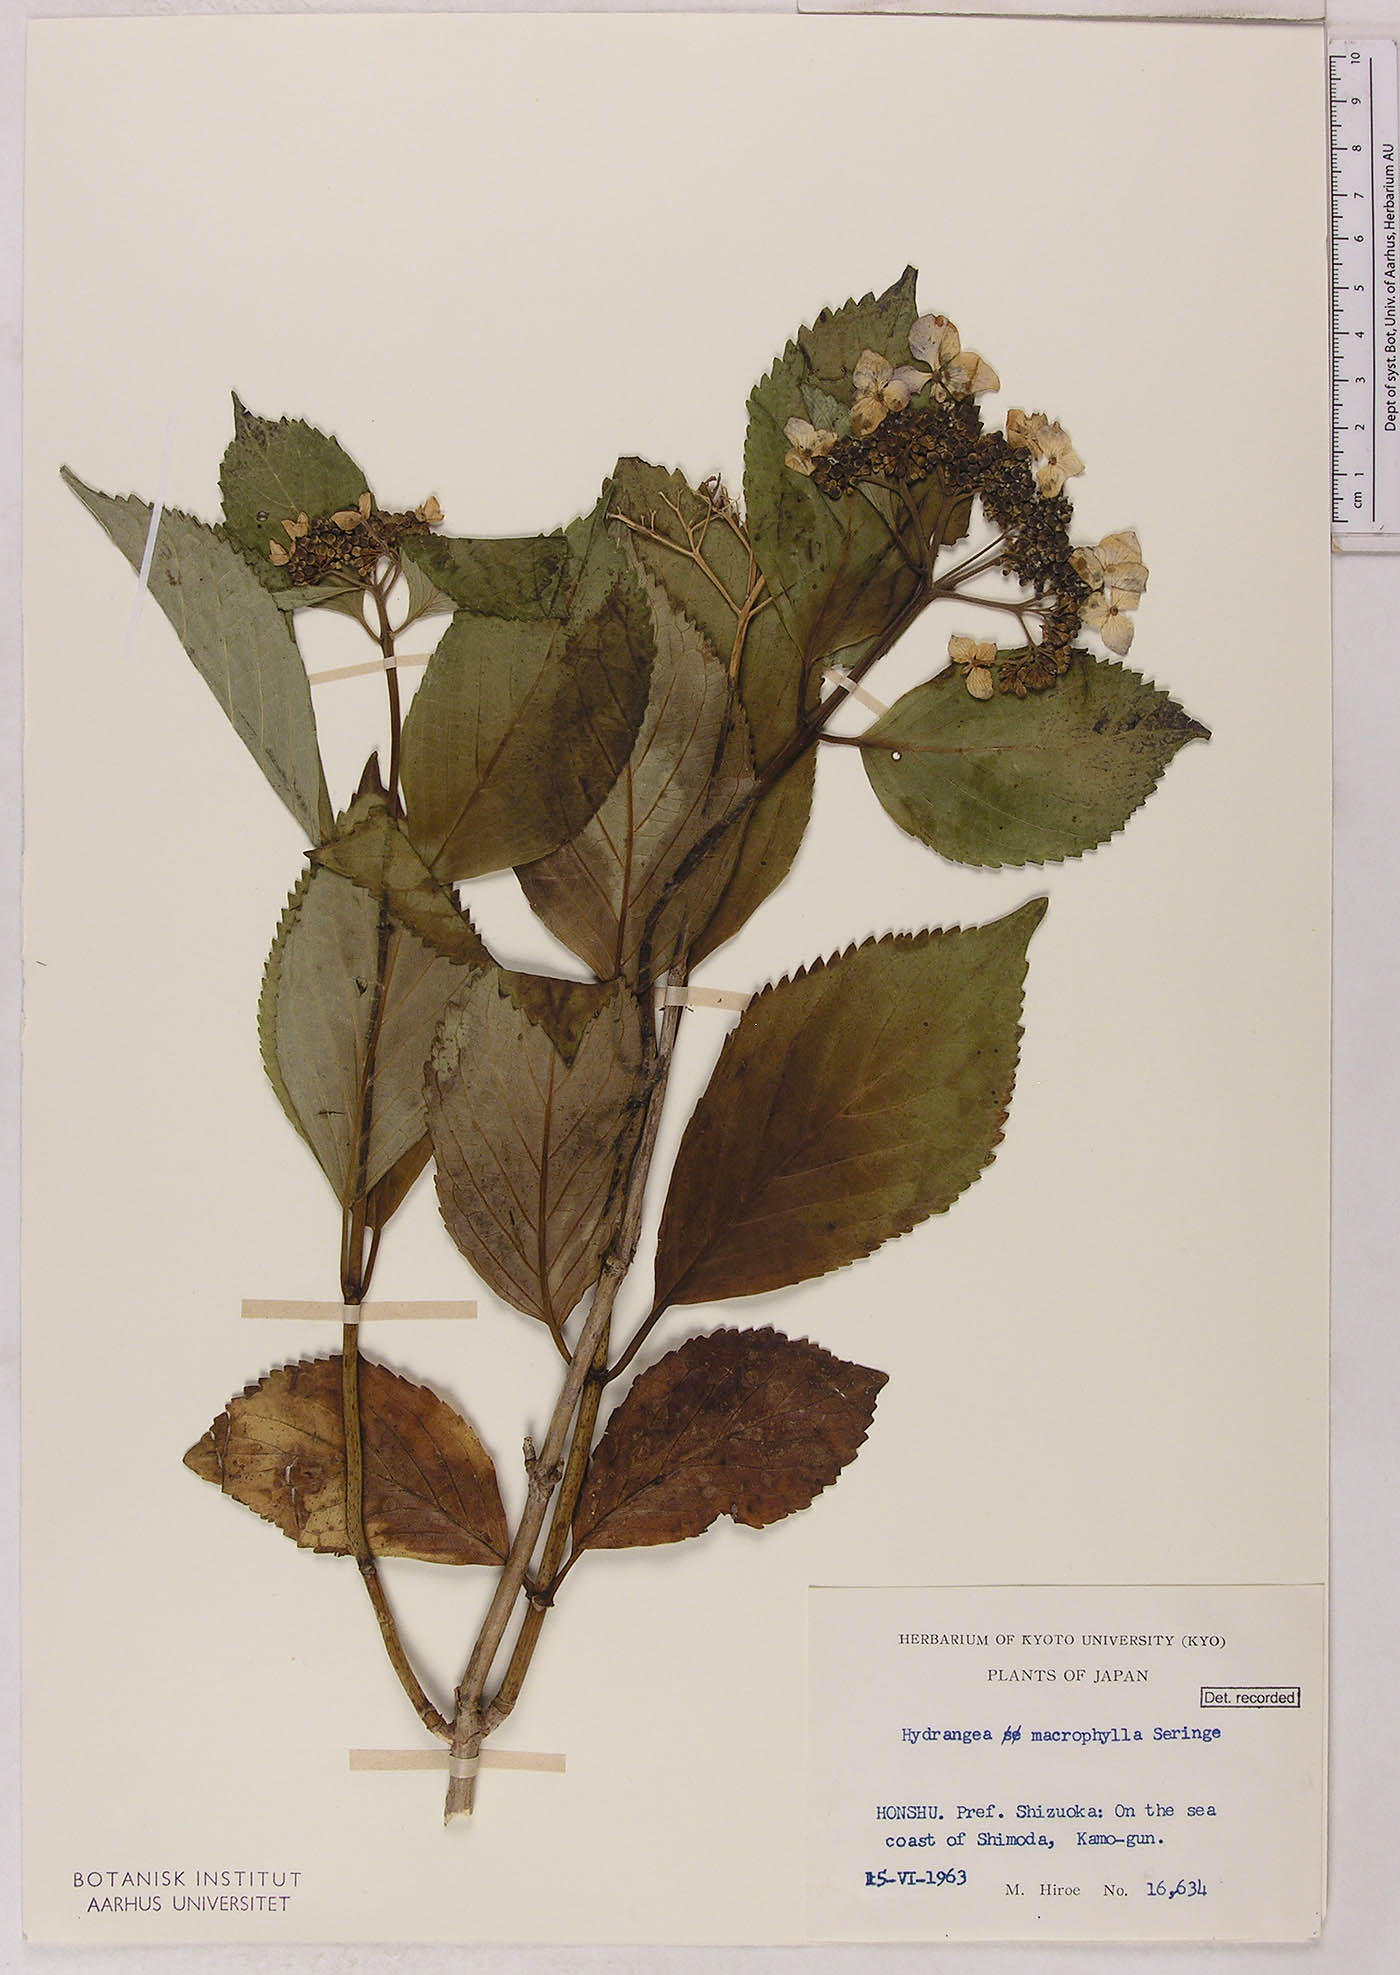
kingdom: Plantae
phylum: Tracheophyta
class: Magnoliopsida
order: Cornales
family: Hydrangeaceae
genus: Hydrangea
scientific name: Hydrangea macrophylla
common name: Hydrangea
